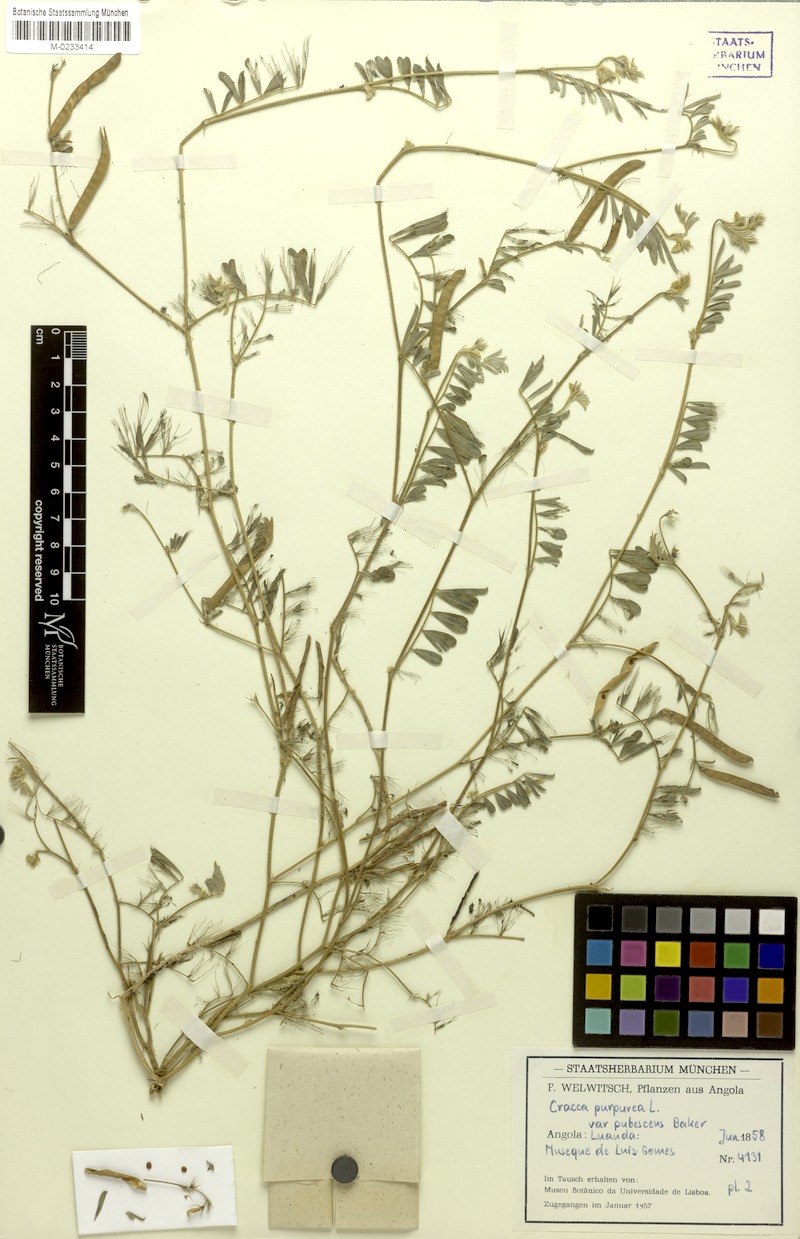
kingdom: Plantae
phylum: Tracheophyta
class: Magnoliopsida
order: Fabales
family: Fabaceae
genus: Tephrosia
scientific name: Tephrosia purpurea
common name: Fishpoison
